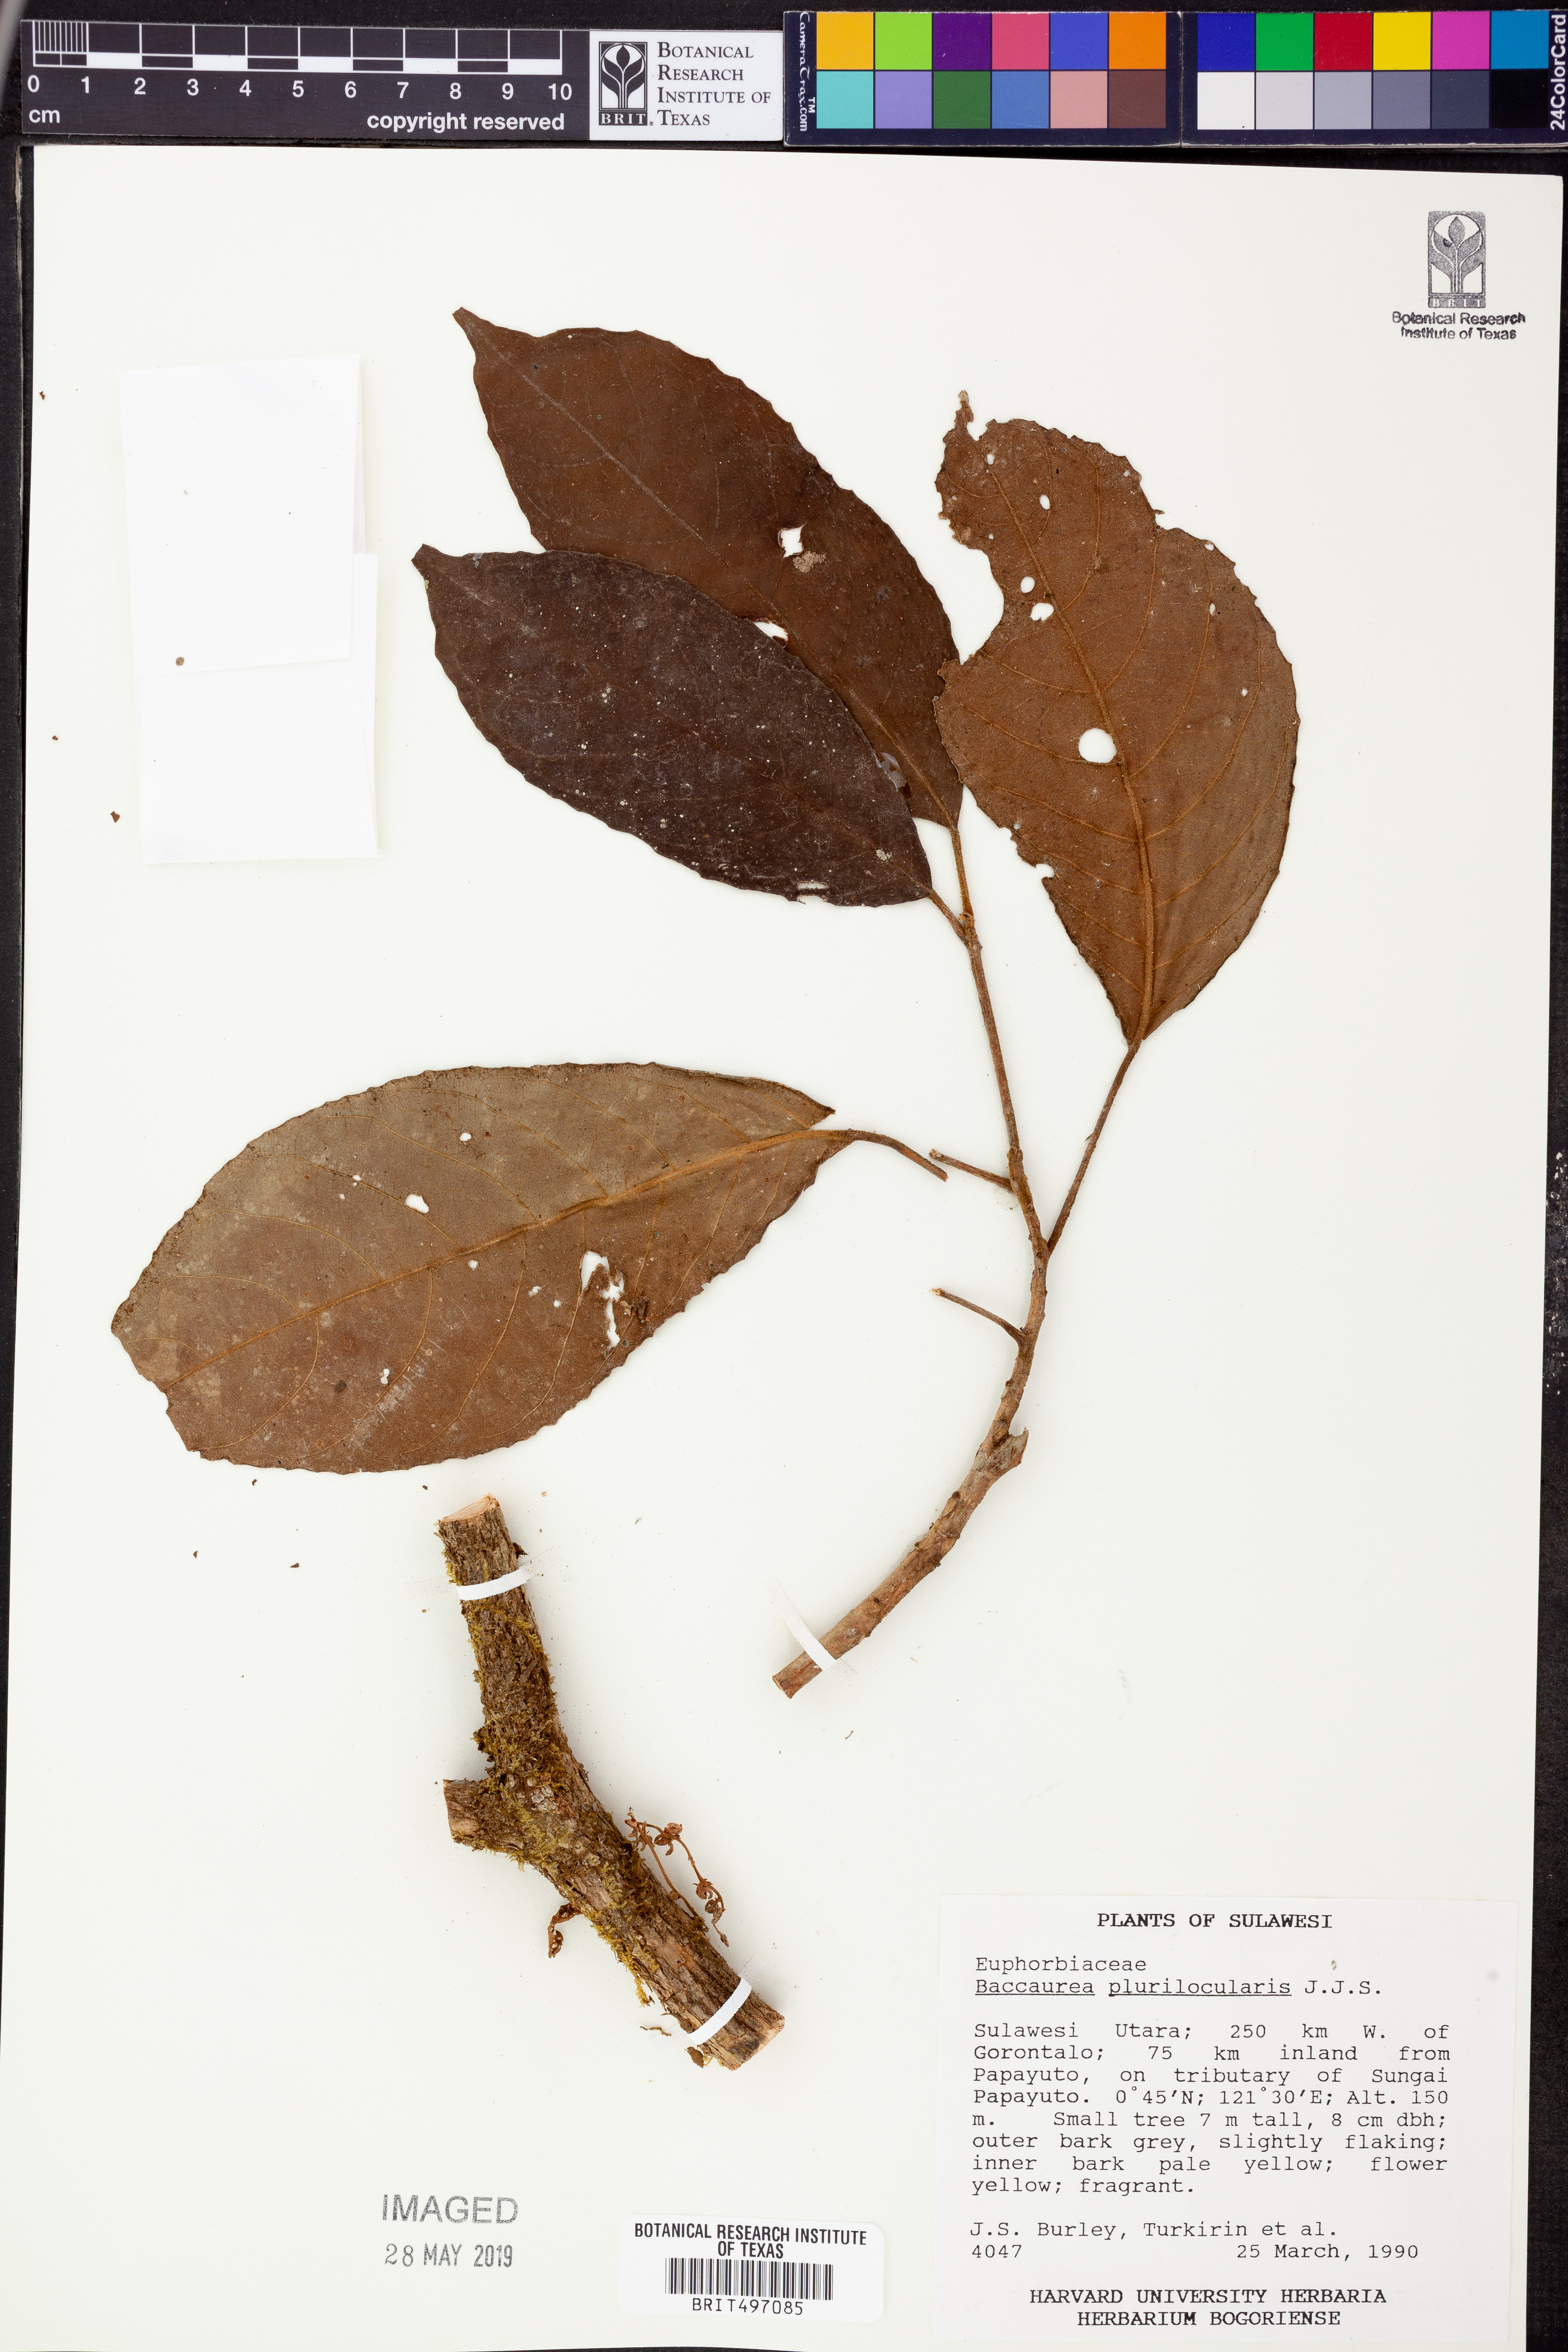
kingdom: Plantae
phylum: Tracheophyta
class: Magnoliopsida
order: Malpighiales
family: Phyllanthaceae
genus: Baccaurea
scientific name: Baccaurea papuana
